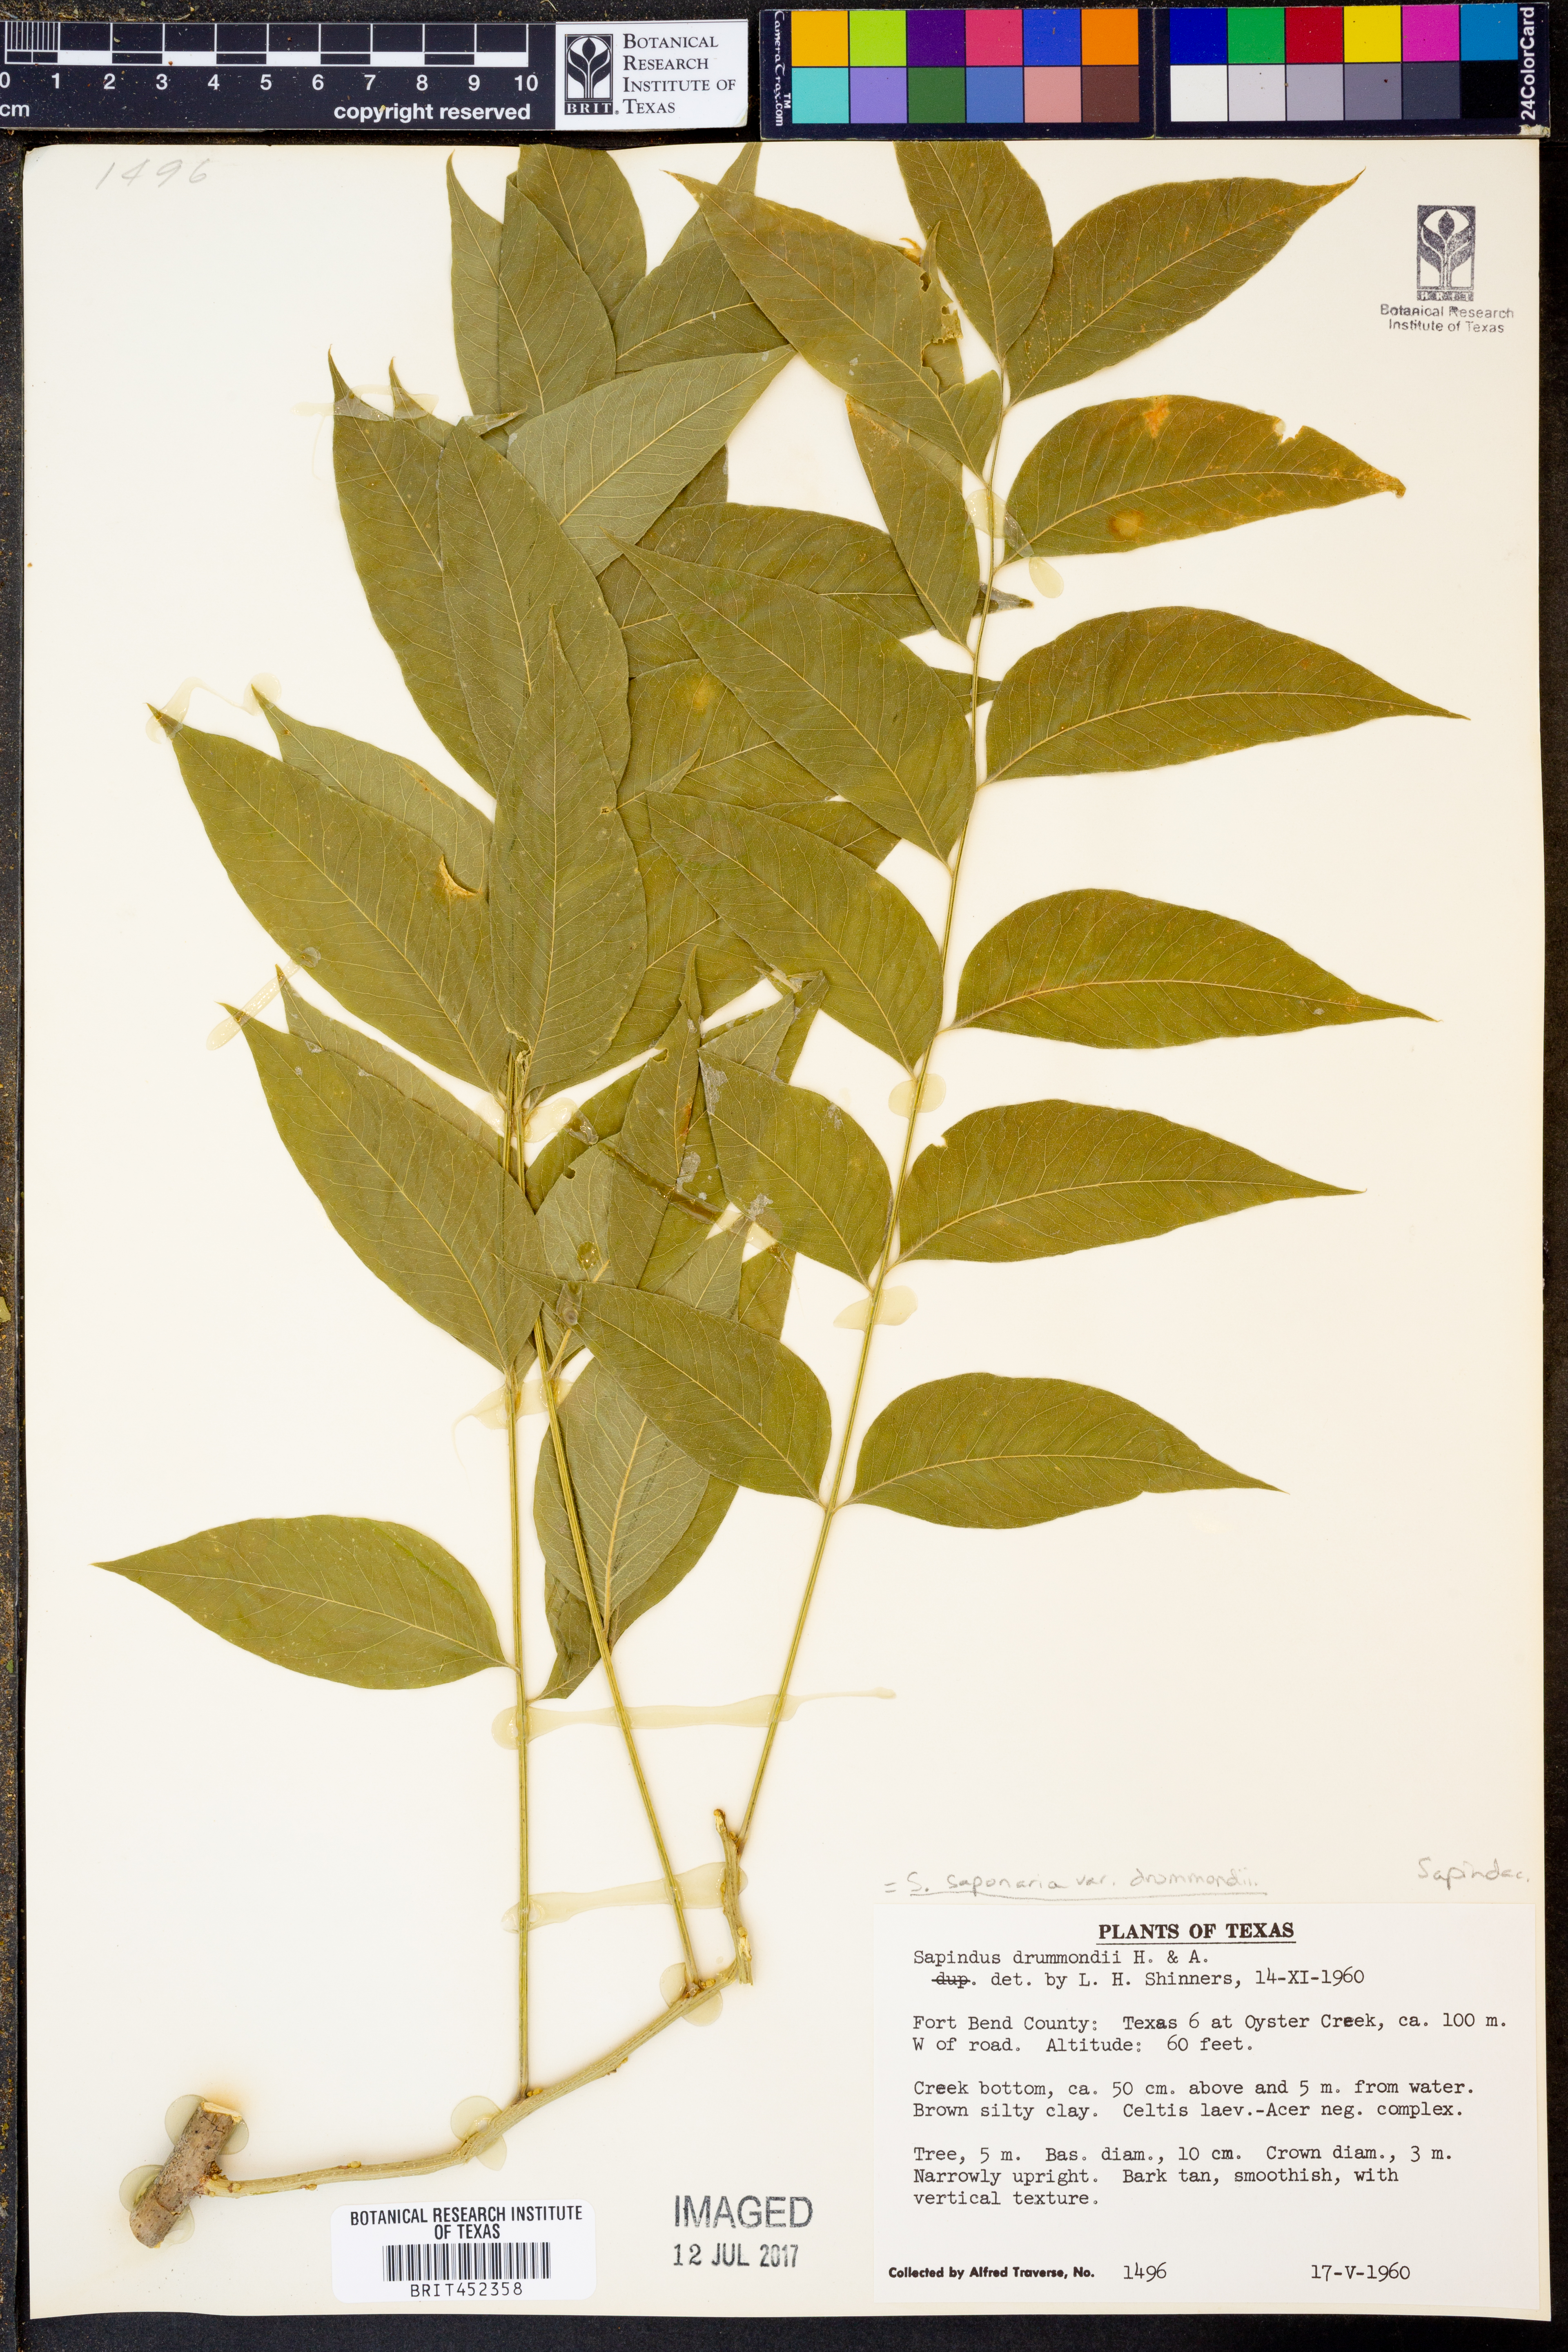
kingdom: Plantae
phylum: Tracheophyta
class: Magnoliopsida
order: Sapindales
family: Sapindaceae
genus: Sapindus
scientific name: Sapindus drummondii
